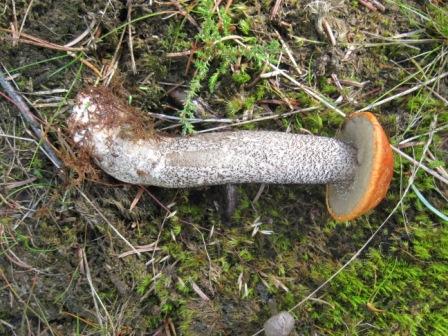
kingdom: Fungi
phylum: Basidiomycota
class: Agaricomycetes
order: Boletales
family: Boletaceae
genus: Leccinum
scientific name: Leccinum versipelle
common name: orange skælrørhat
